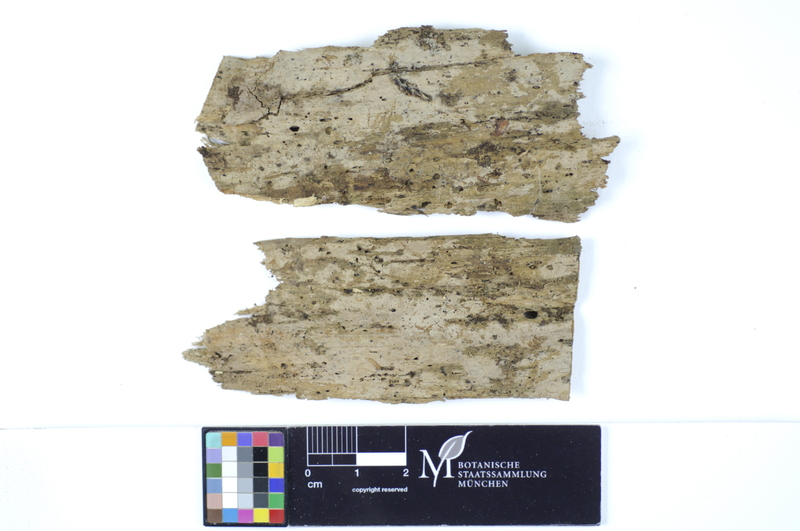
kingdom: Plantae
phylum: Tracheophyta
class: Pinopsida
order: Pinales
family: Pinaceae
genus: Abies
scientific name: Abies
